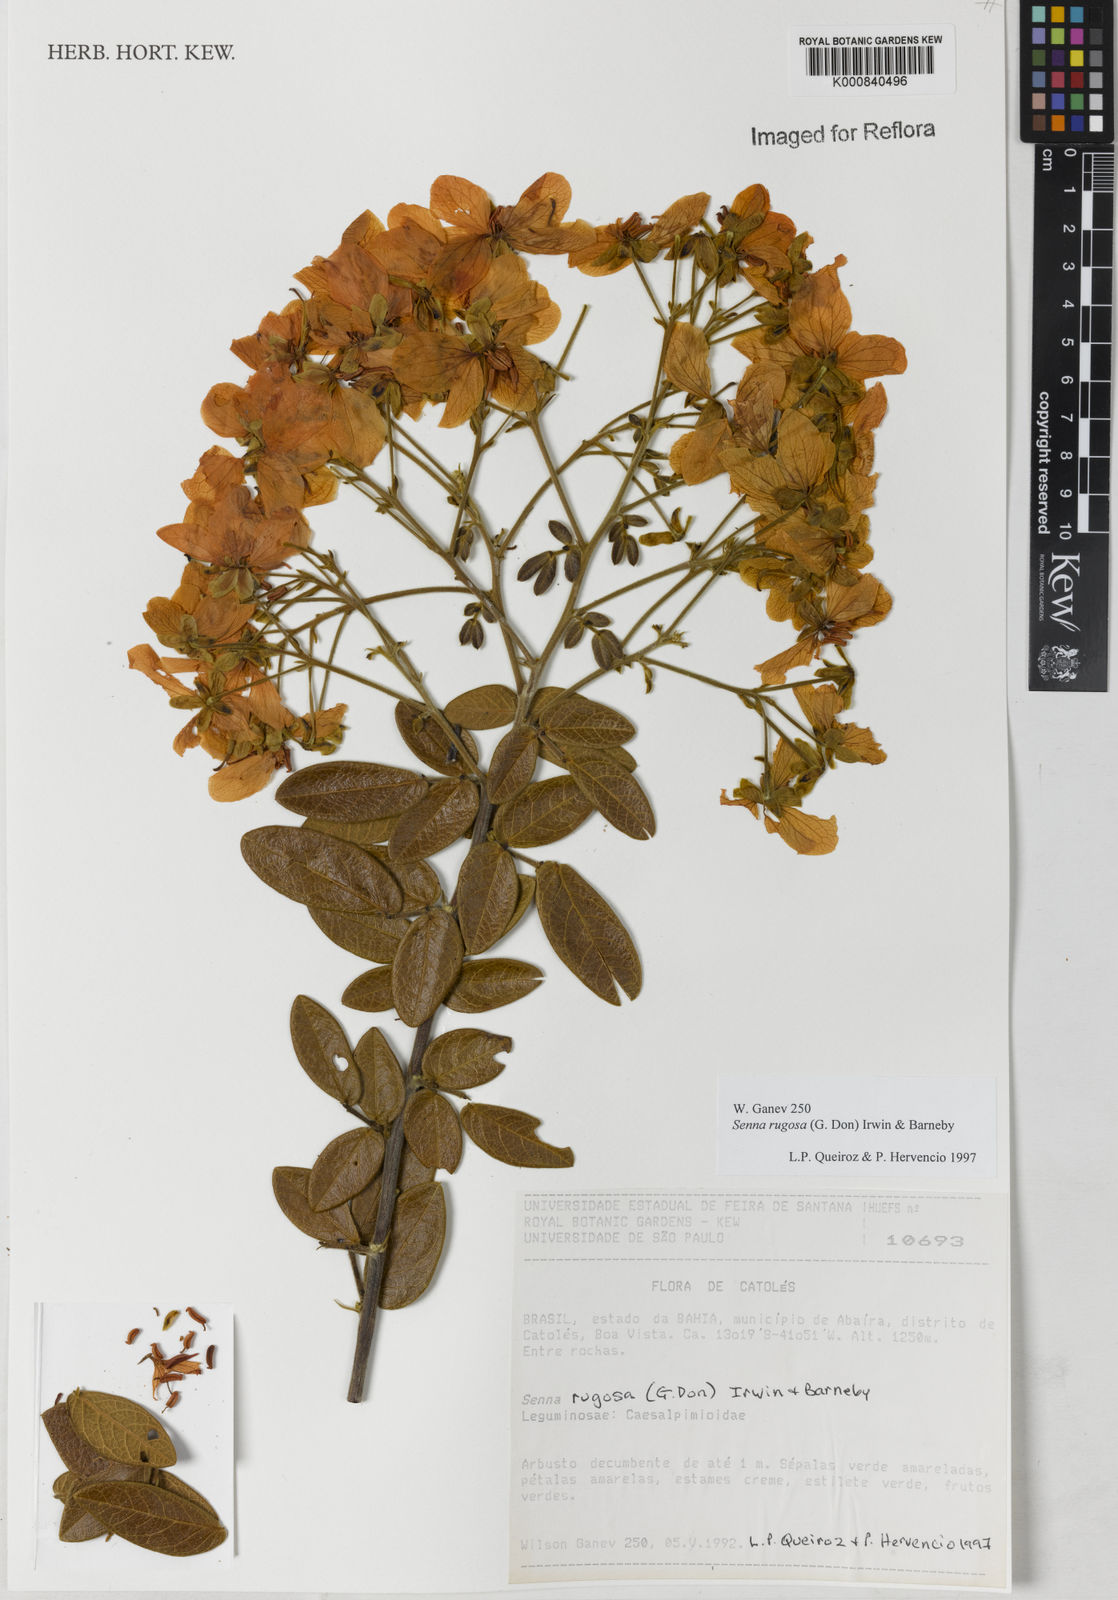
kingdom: Plantae
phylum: Tracheophyta
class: Magnoliopsida
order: Fabales
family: Fabaceae
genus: Senna
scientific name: Senna rugosa
